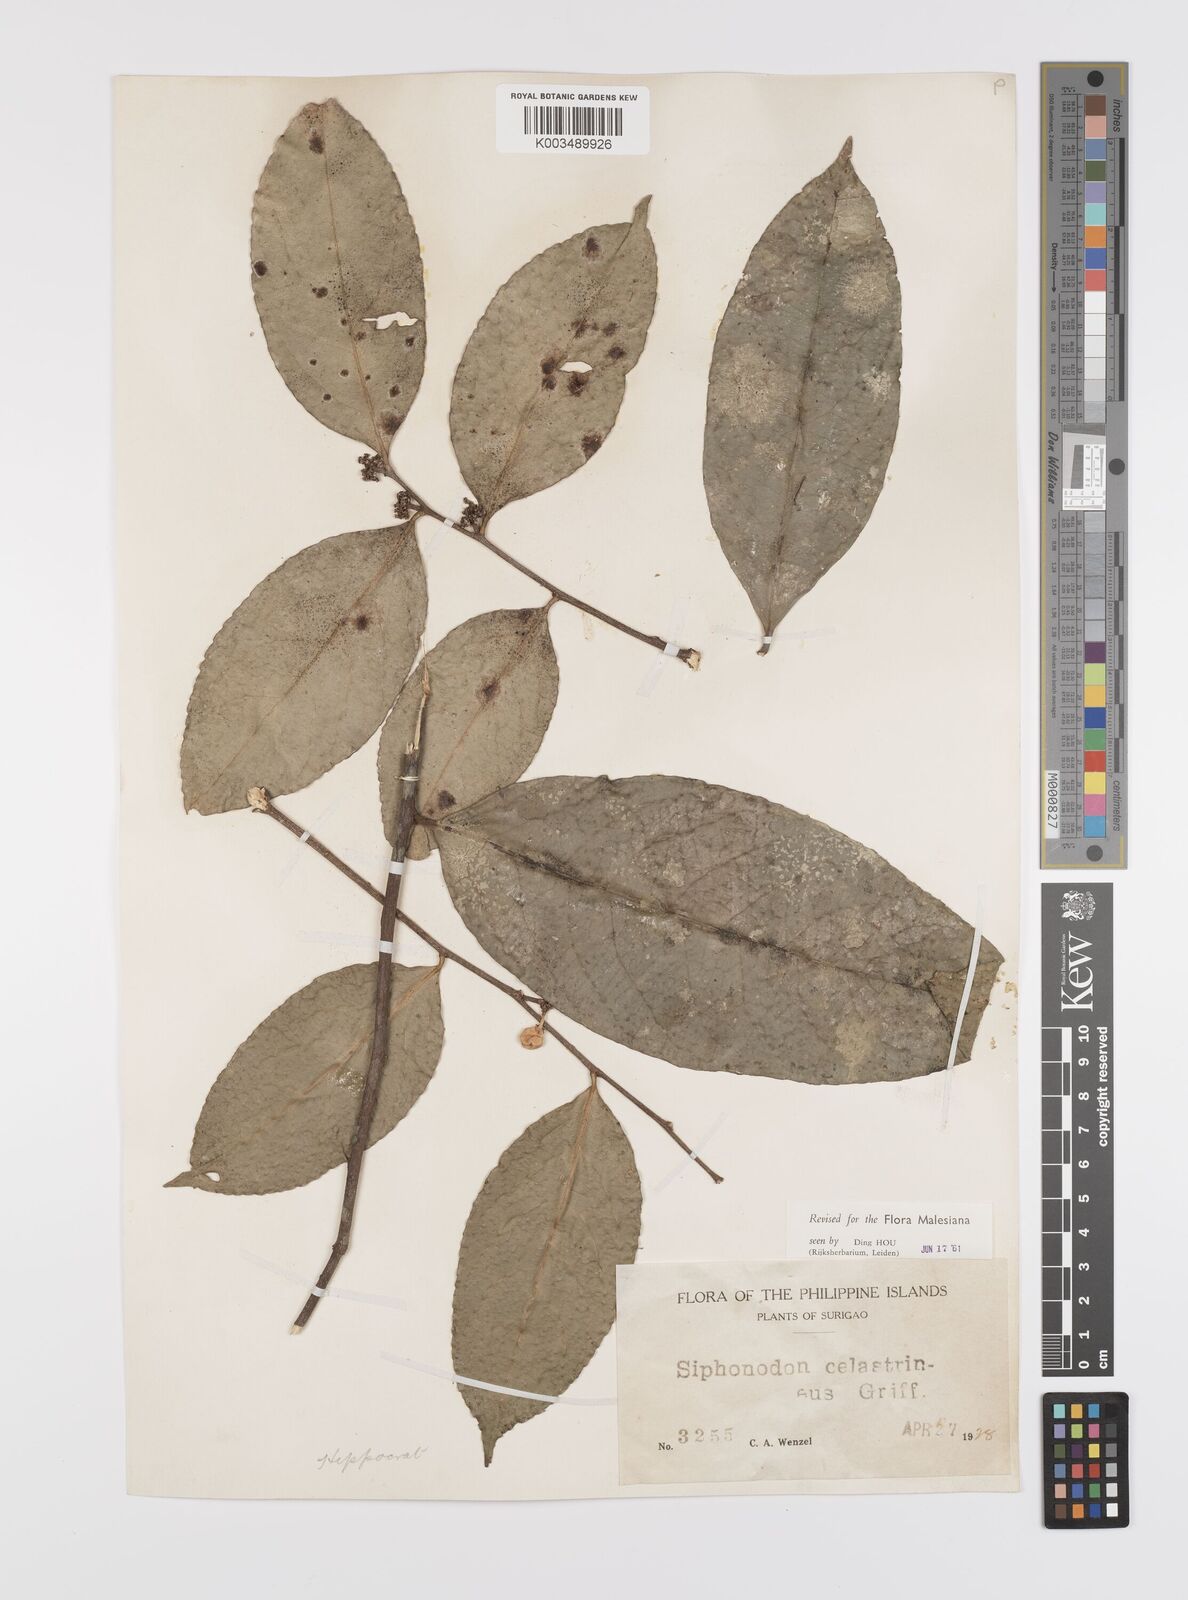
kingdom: Plantae
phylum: Tracheophyta
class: Magnoliopsida
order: Celastrales
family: Celastraceae
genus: Siphonodon
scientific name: Siphonodon celastrineus
